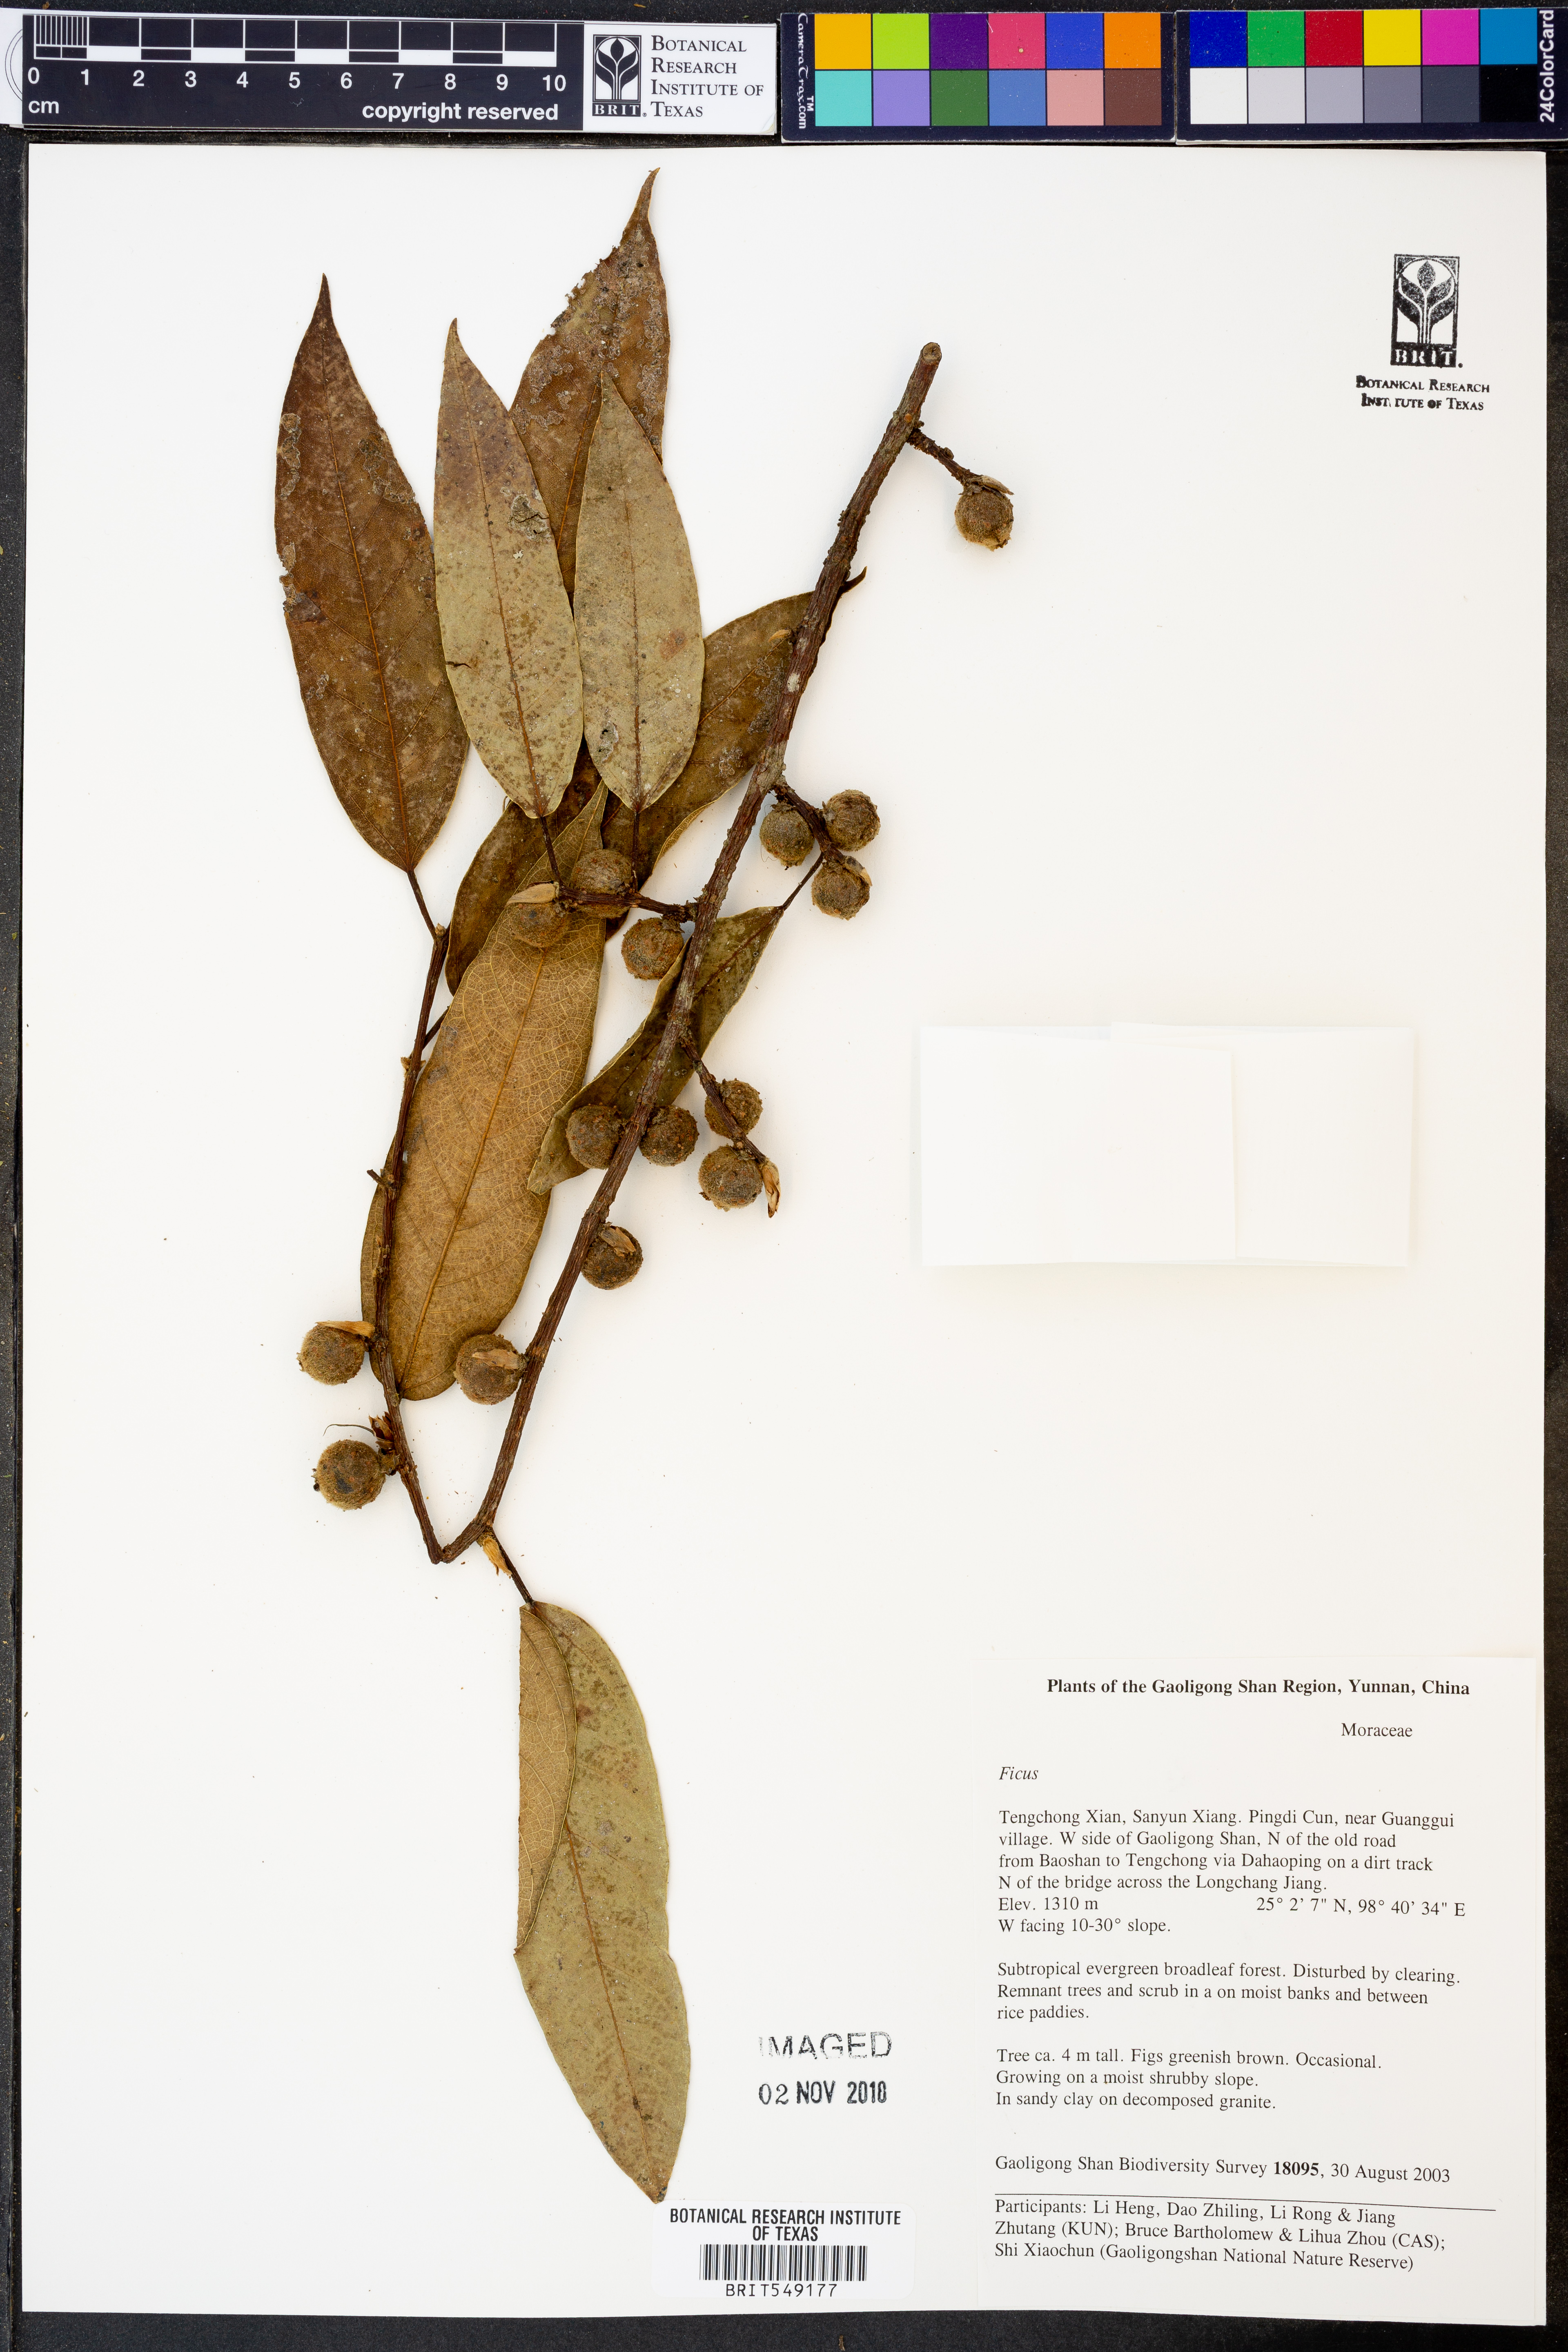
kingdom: Plantae
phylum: Tracheophyta
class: Magnoliopsida
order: Rosales
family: Moraceae
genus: Ficus
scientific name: Ficus
